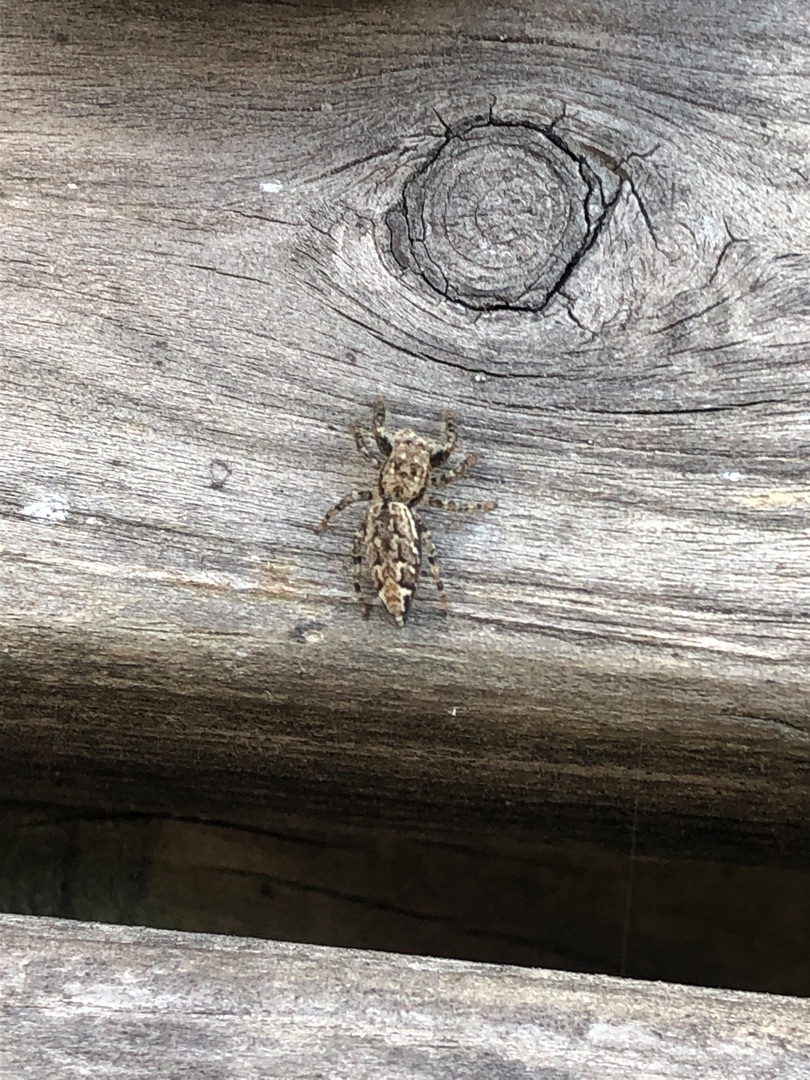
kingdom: Animalia
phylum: Arthropoda
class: Arachnida
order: Araneae
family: Salticidae
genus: Marpissa
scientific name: Marpissa muscosa
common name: Stor springedderkop
